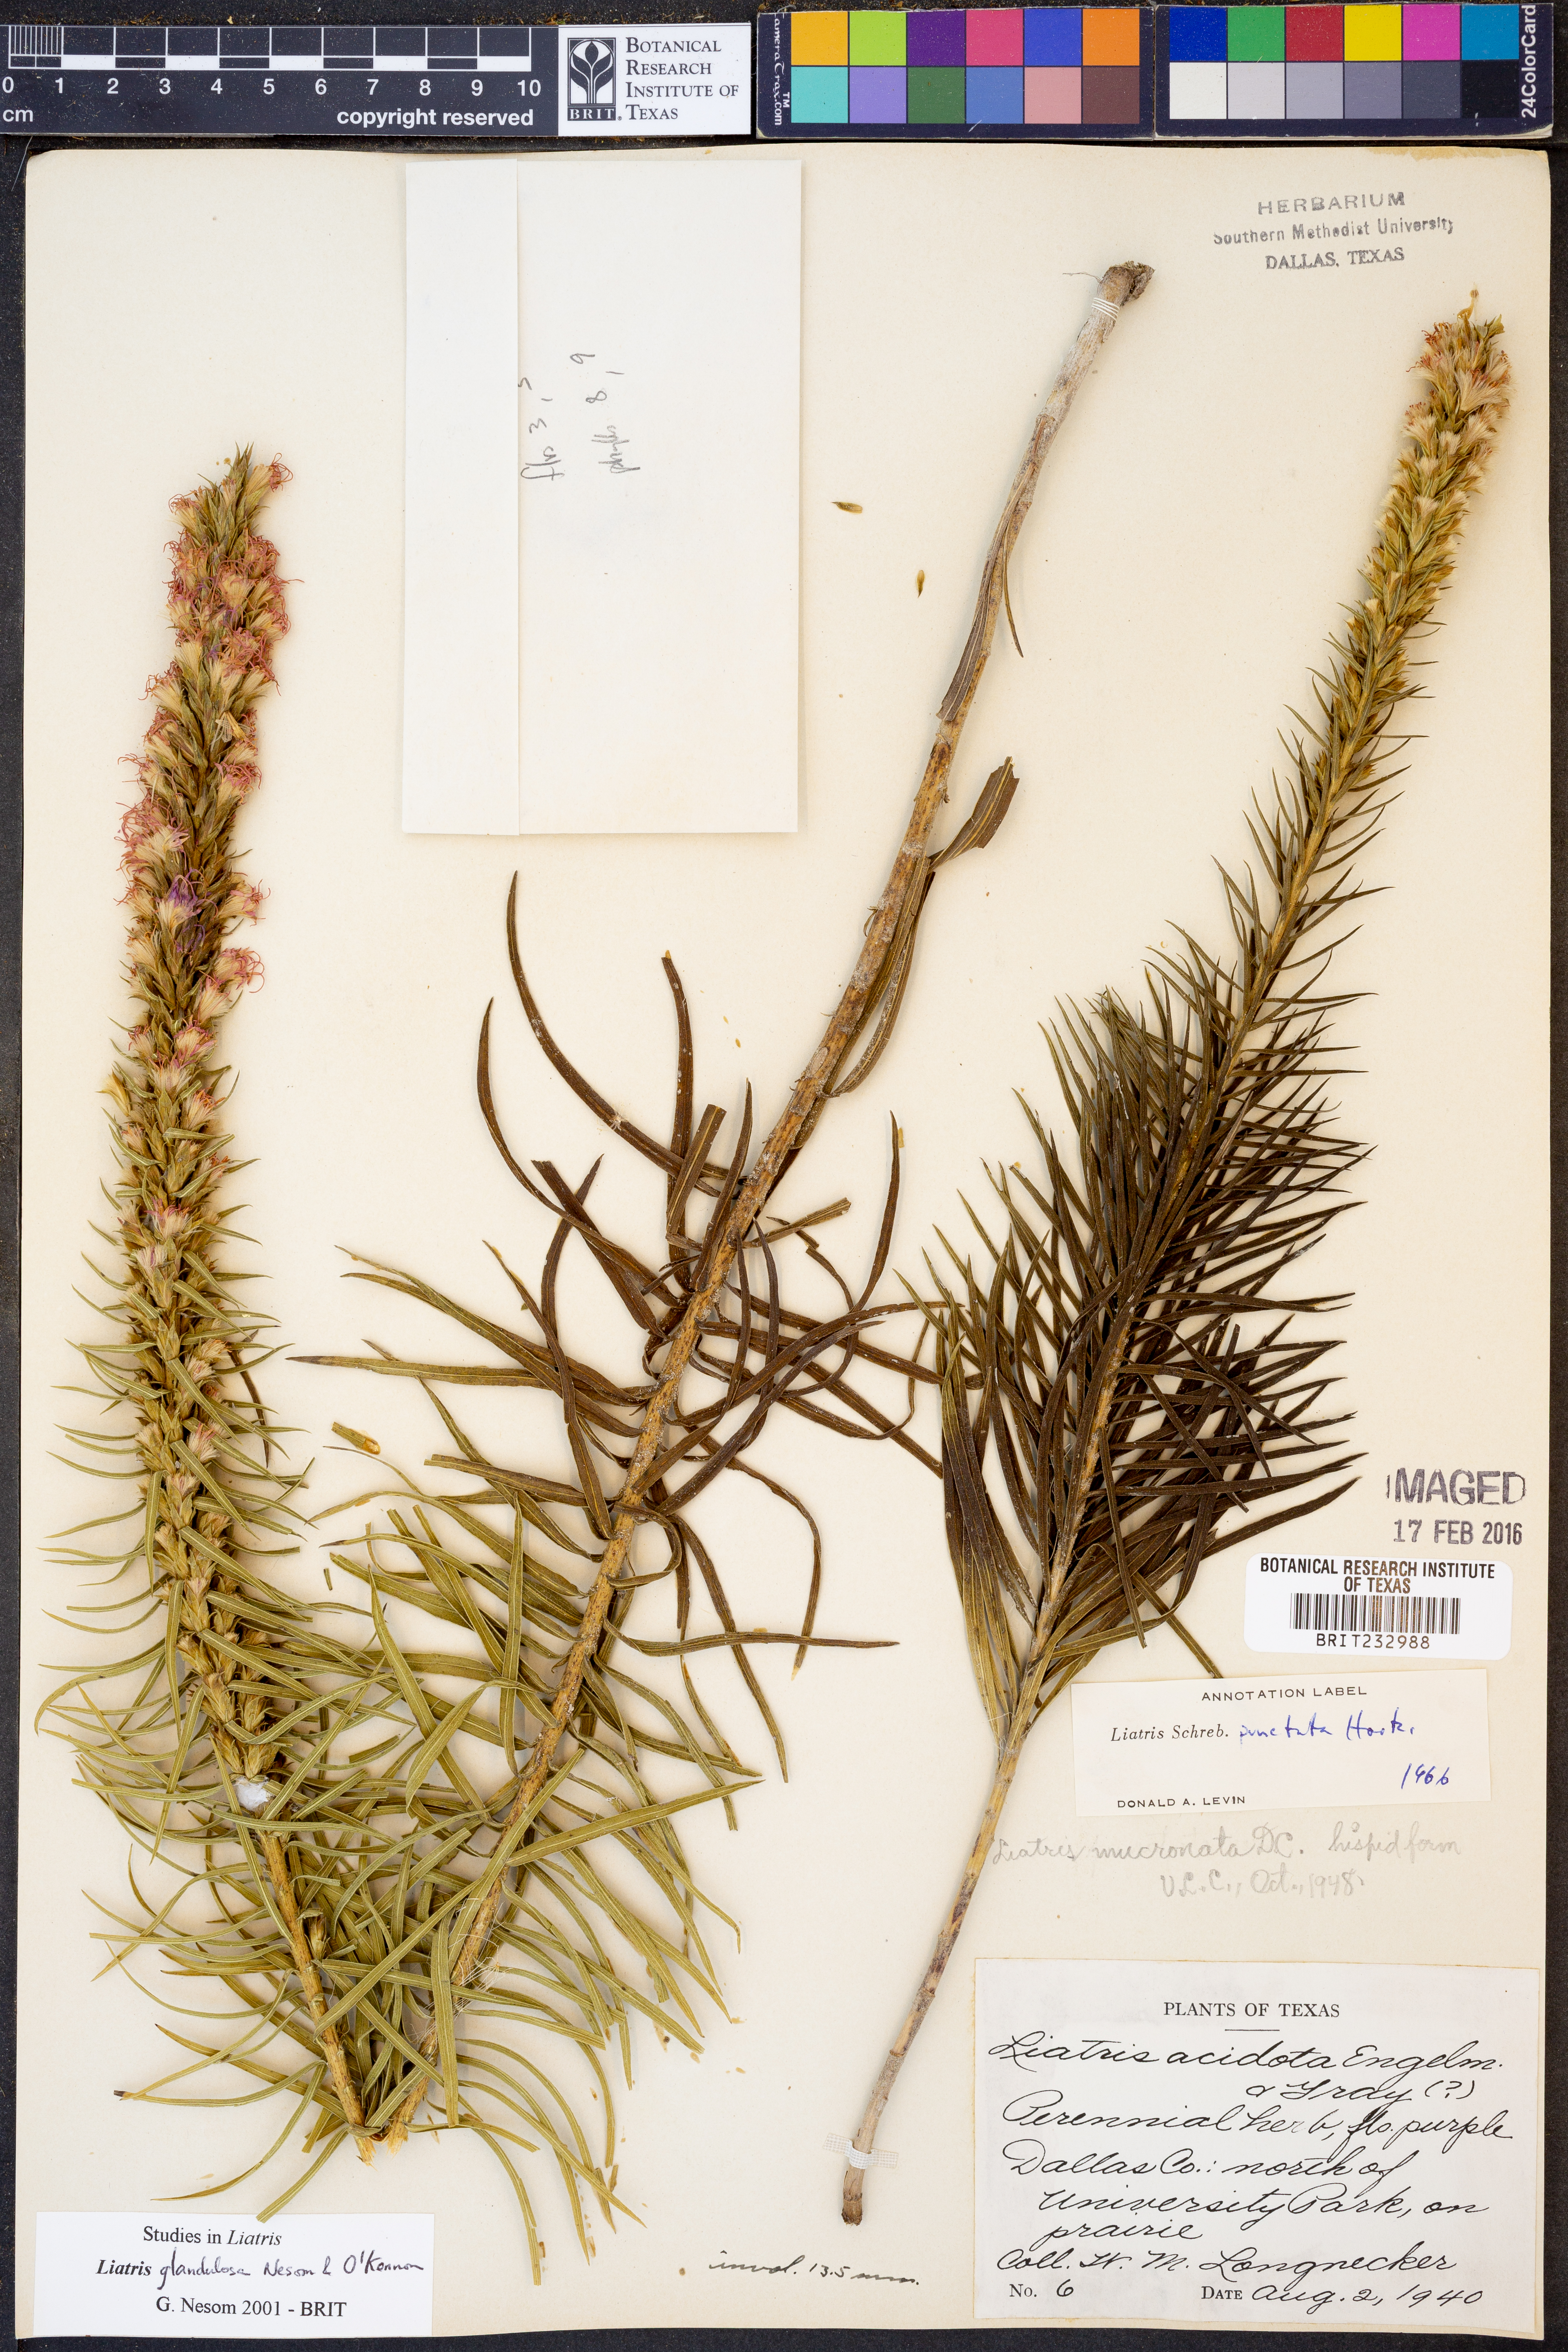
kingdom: Plantae
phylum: Tracheophyta
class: Magnoliopsida
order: Asterales
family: Asteraceae
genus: Liatris
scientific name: Liatris glandulosa
